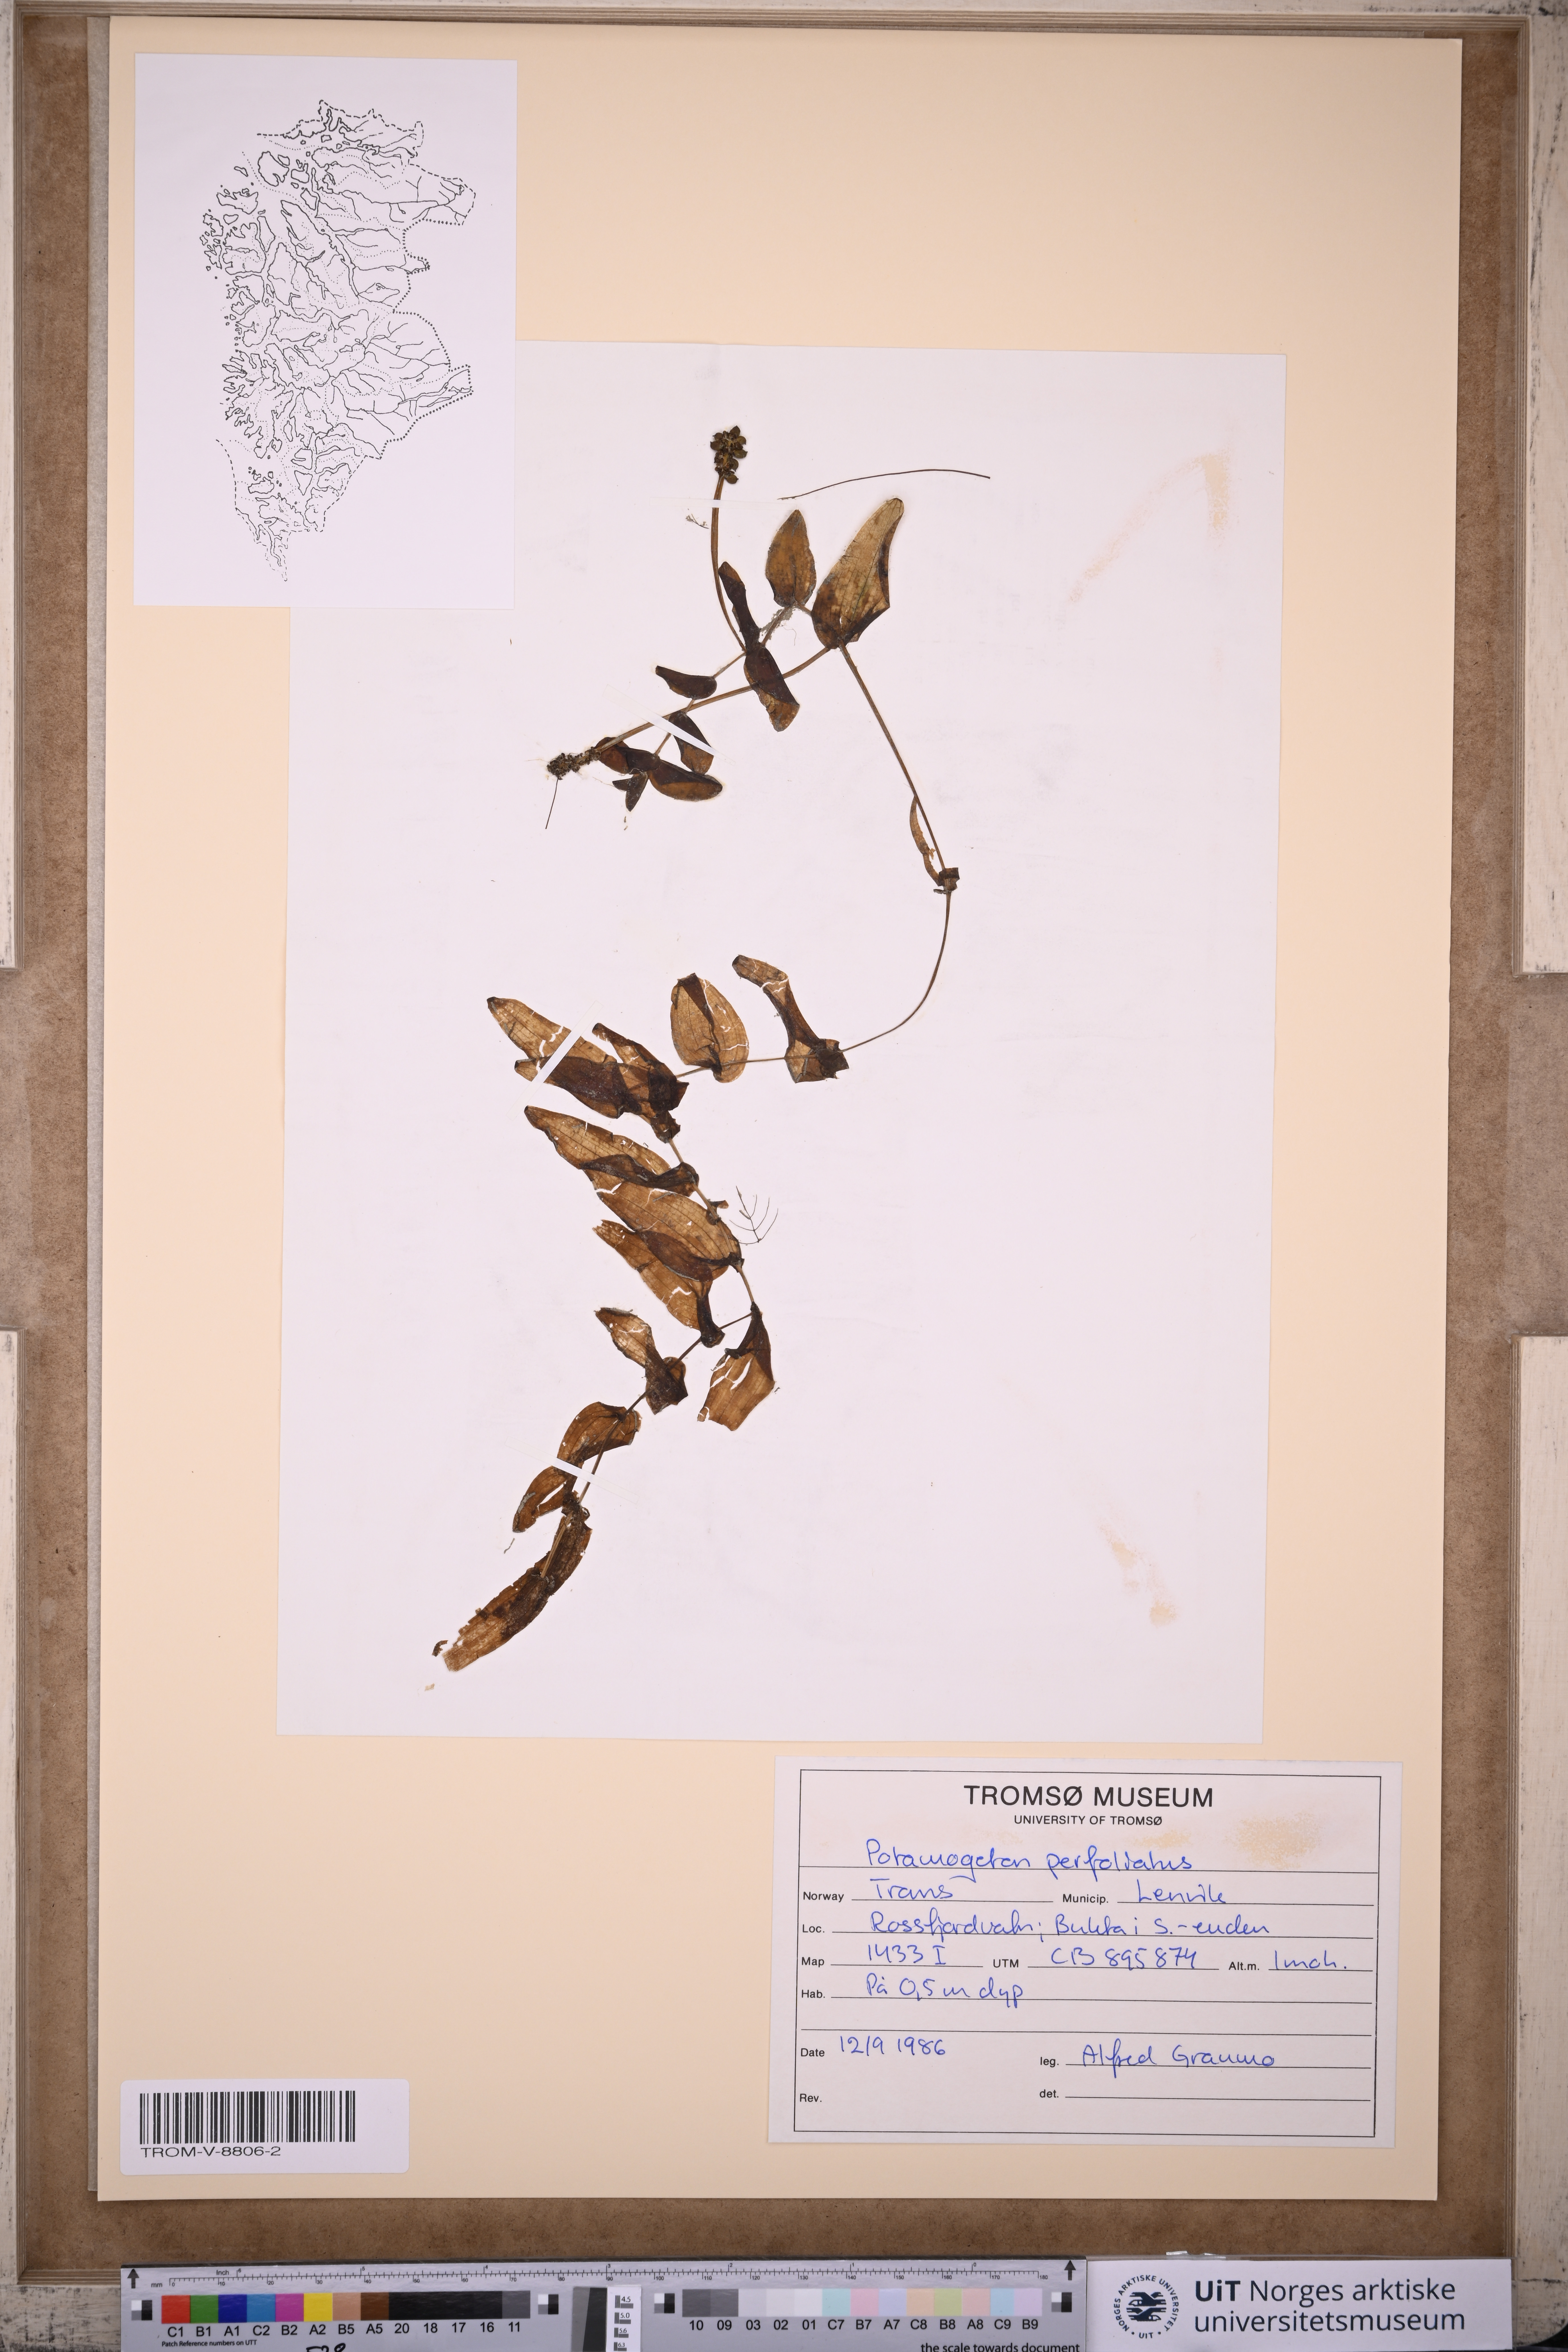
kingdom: Plantae
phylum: Tracheophyta
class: Liliopsida
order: Alismatales
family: Potamogetonaceae
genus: Potamogeton
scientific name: Potamogeton perfoliatus
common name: Perfoliate pondweed
